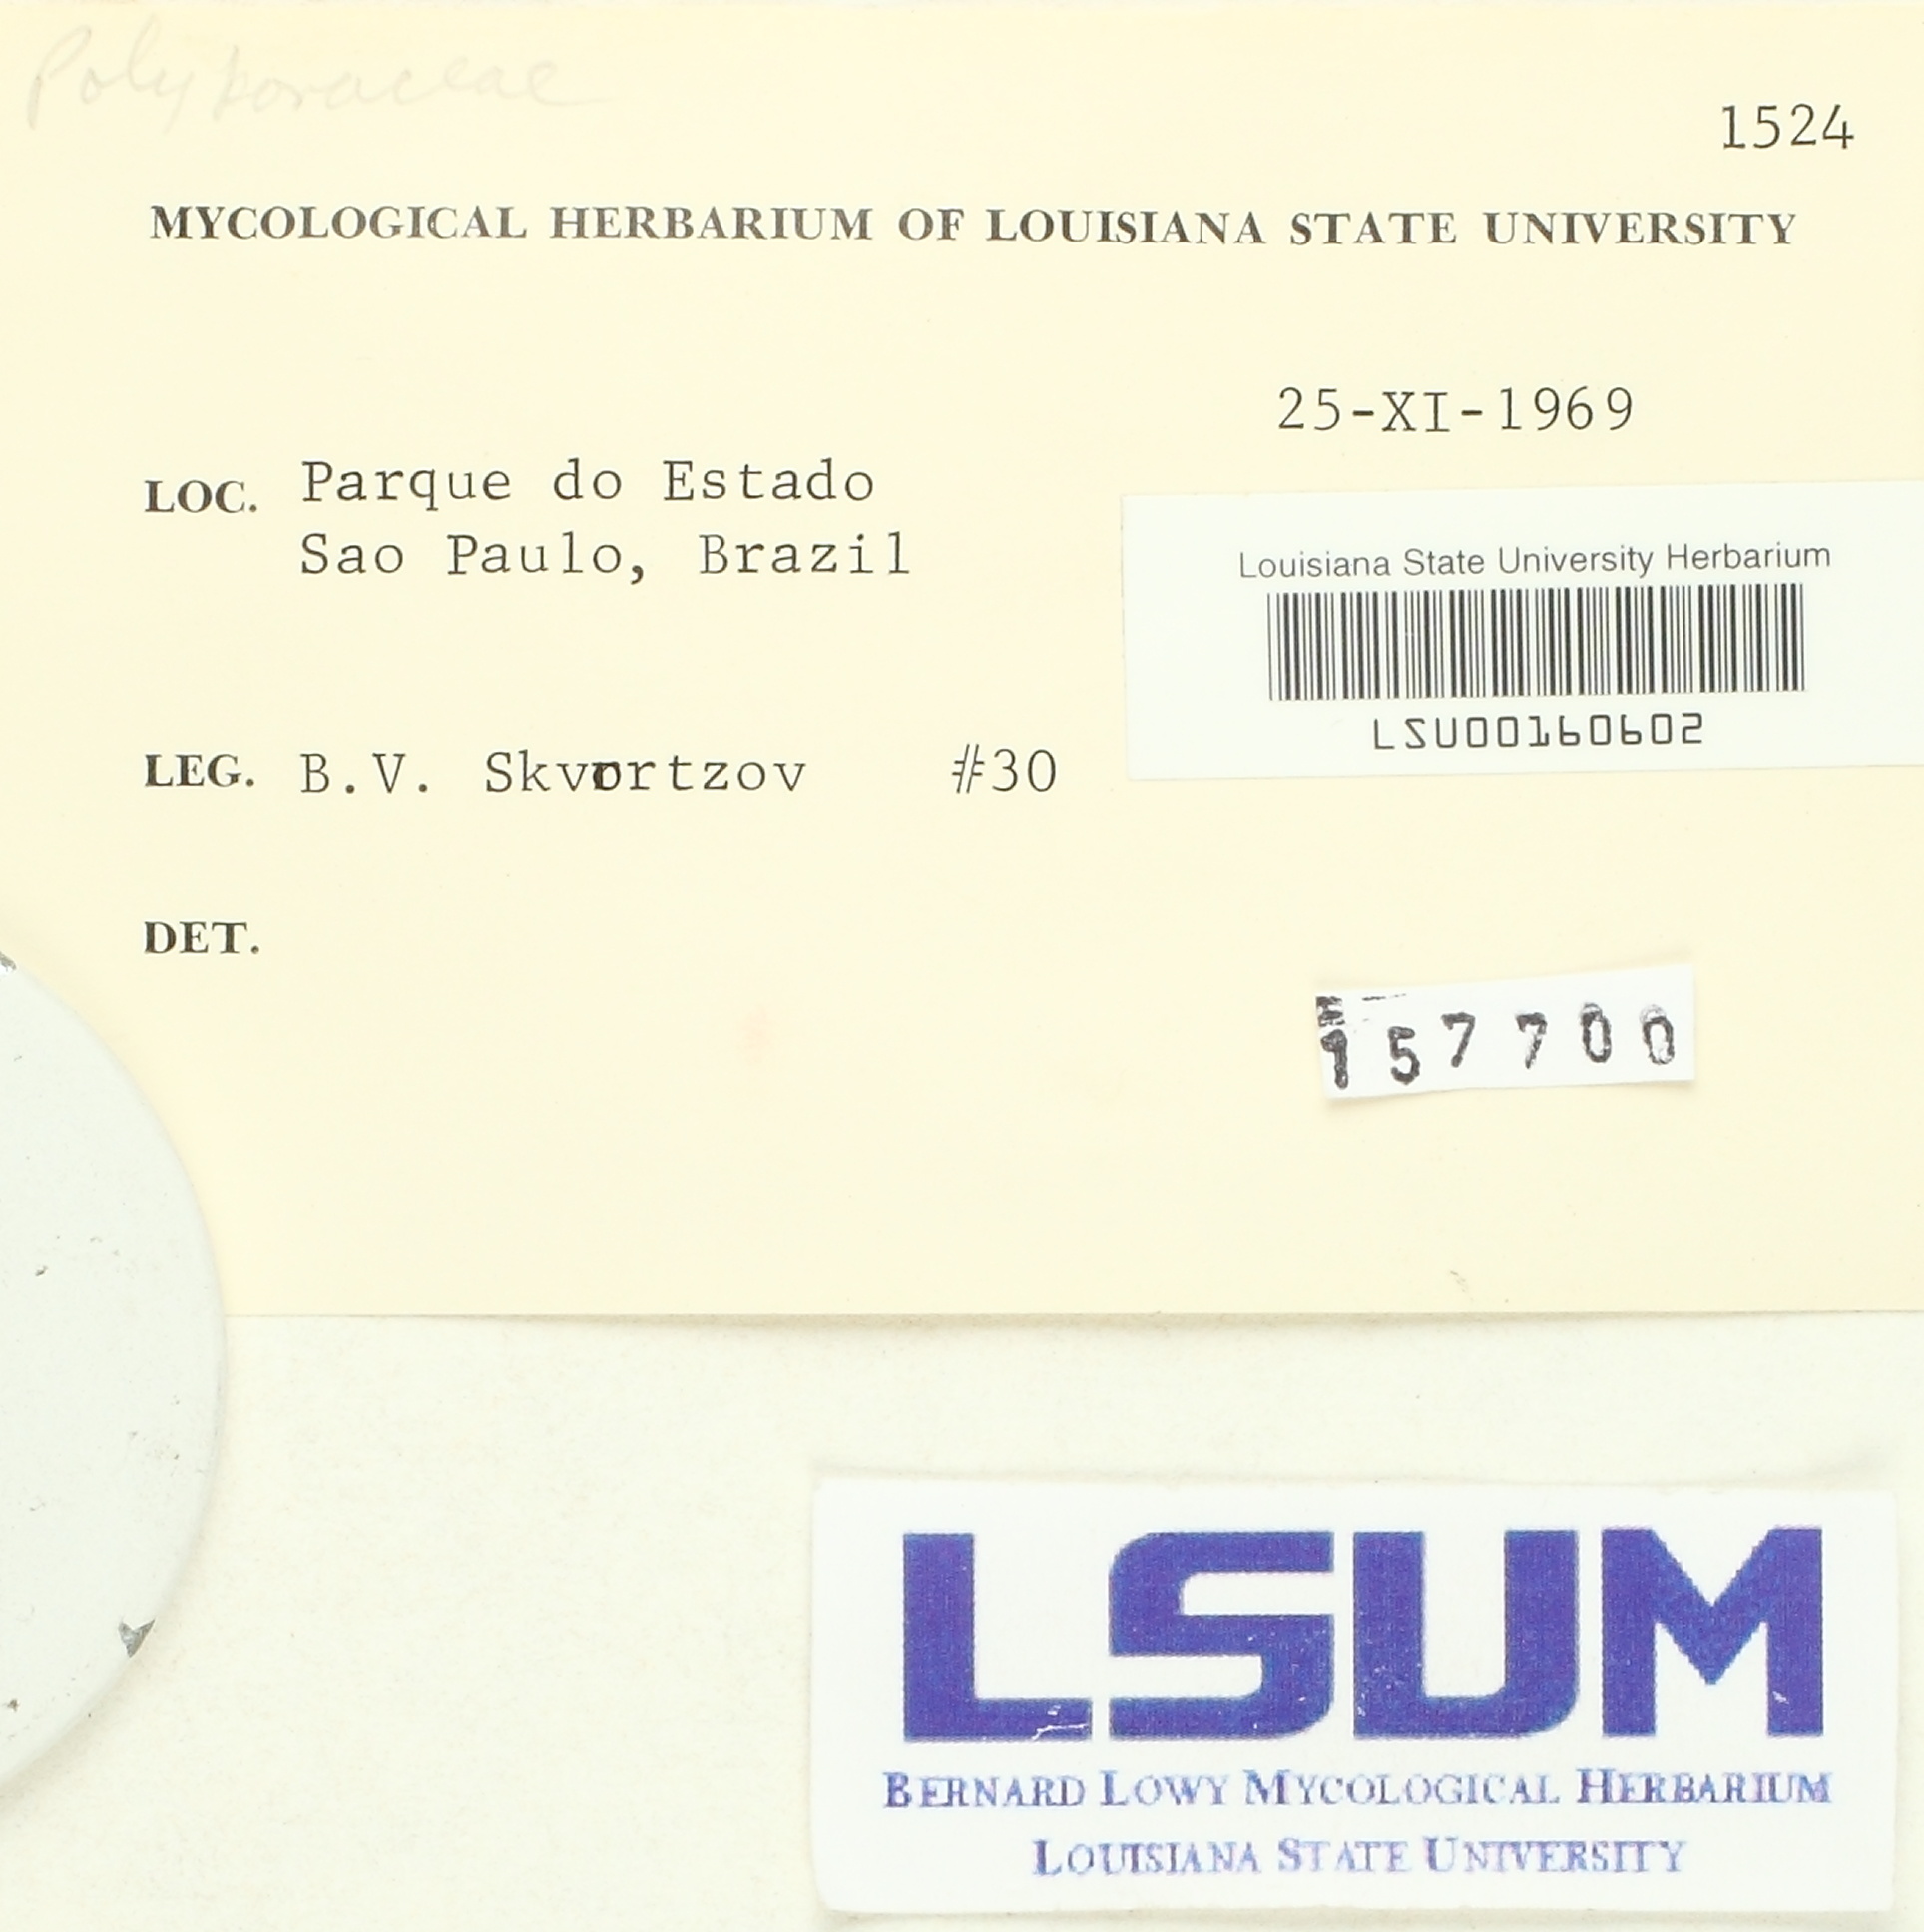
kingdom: Fungi
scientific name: Fungi
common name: Fungi
